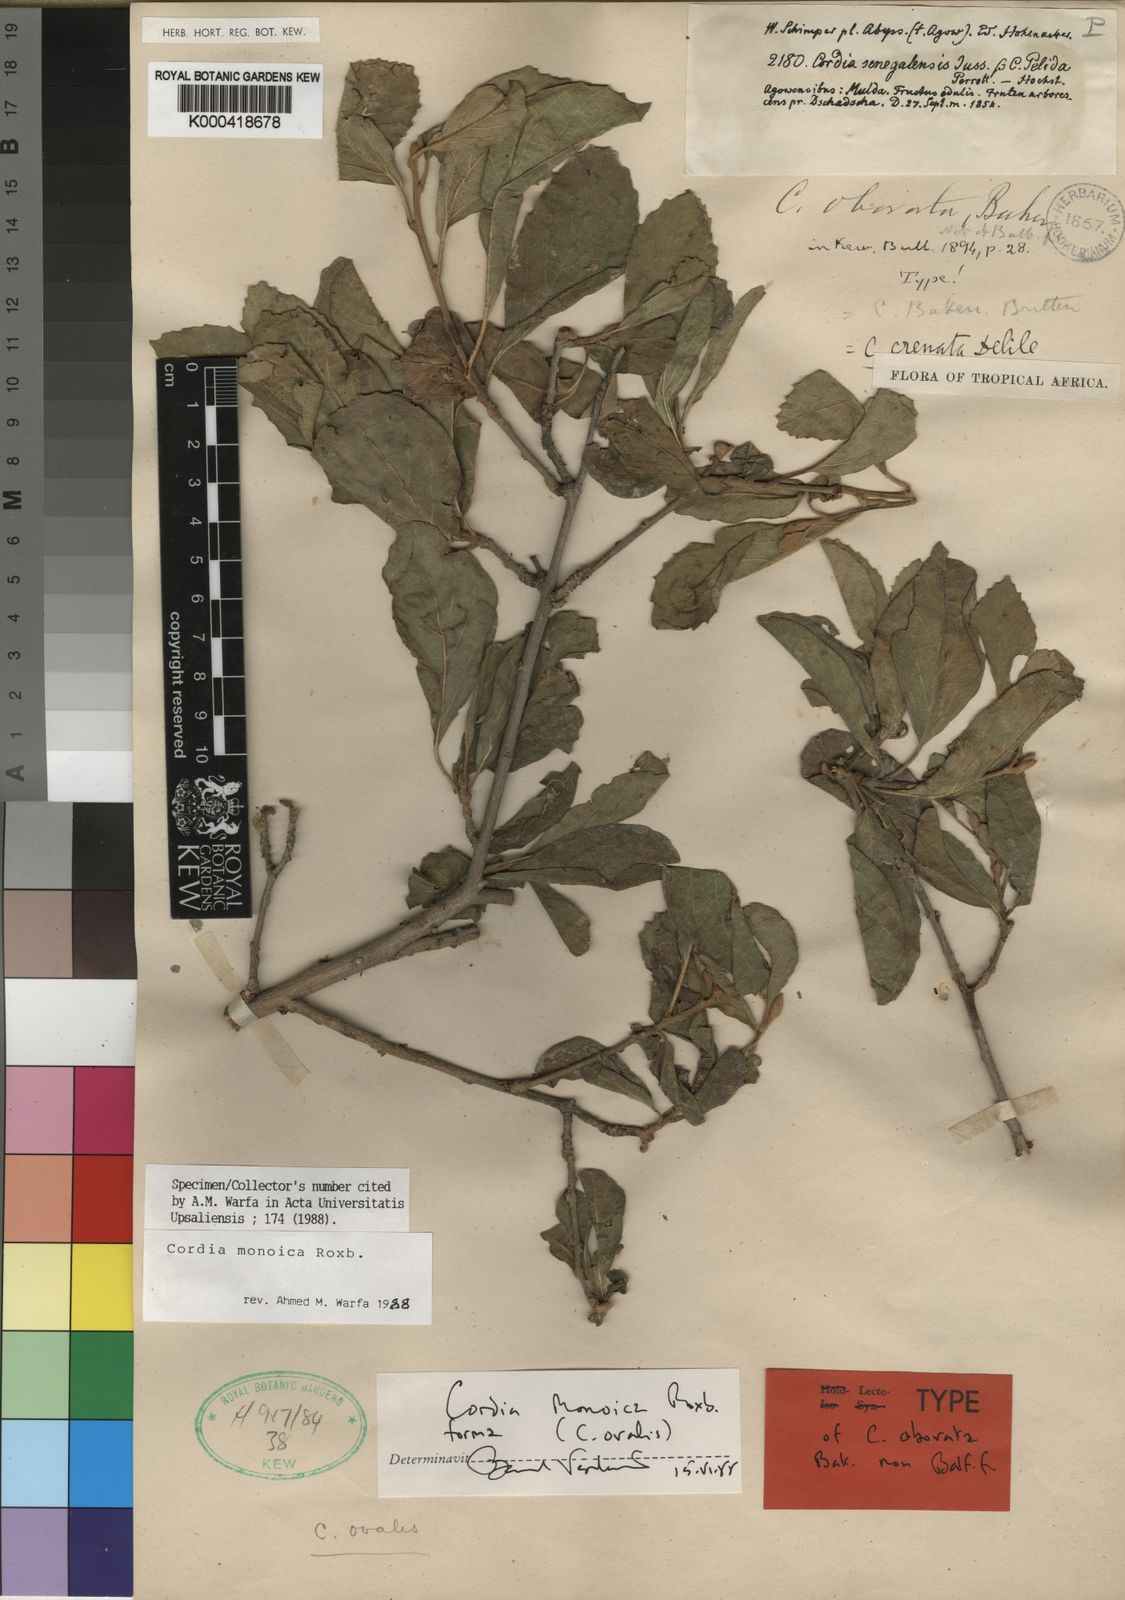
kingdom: Plantae
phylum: Tracheophyta
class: Magnoliopsida
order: Boraginales
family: Cordiaceae
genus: Cordia
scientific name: Cordia monoica
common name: Snot berry
